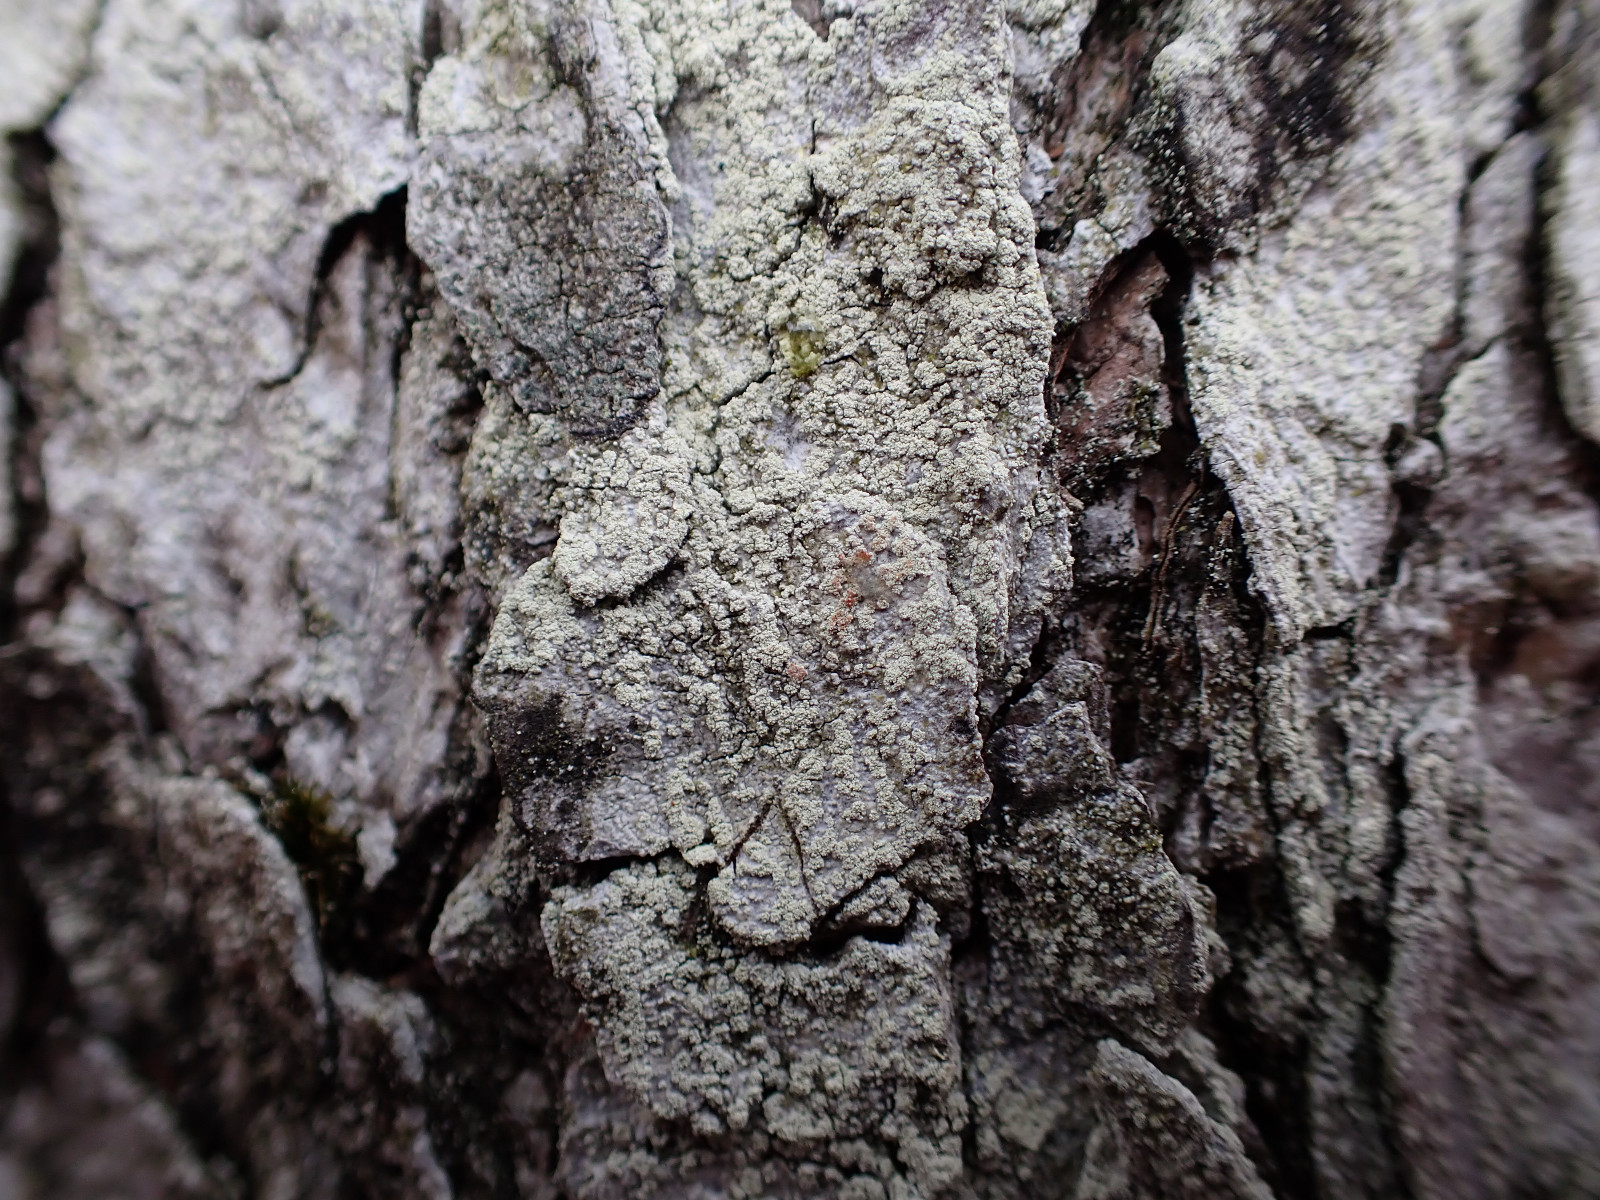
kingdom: Fungi
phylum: Ascomycota
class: Lecanoromycetes
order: Pertusariales
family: Ochrolechiaceae
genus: Ochrolechia
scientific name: Ochrolechia arborea
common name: skov-blegskivelav
